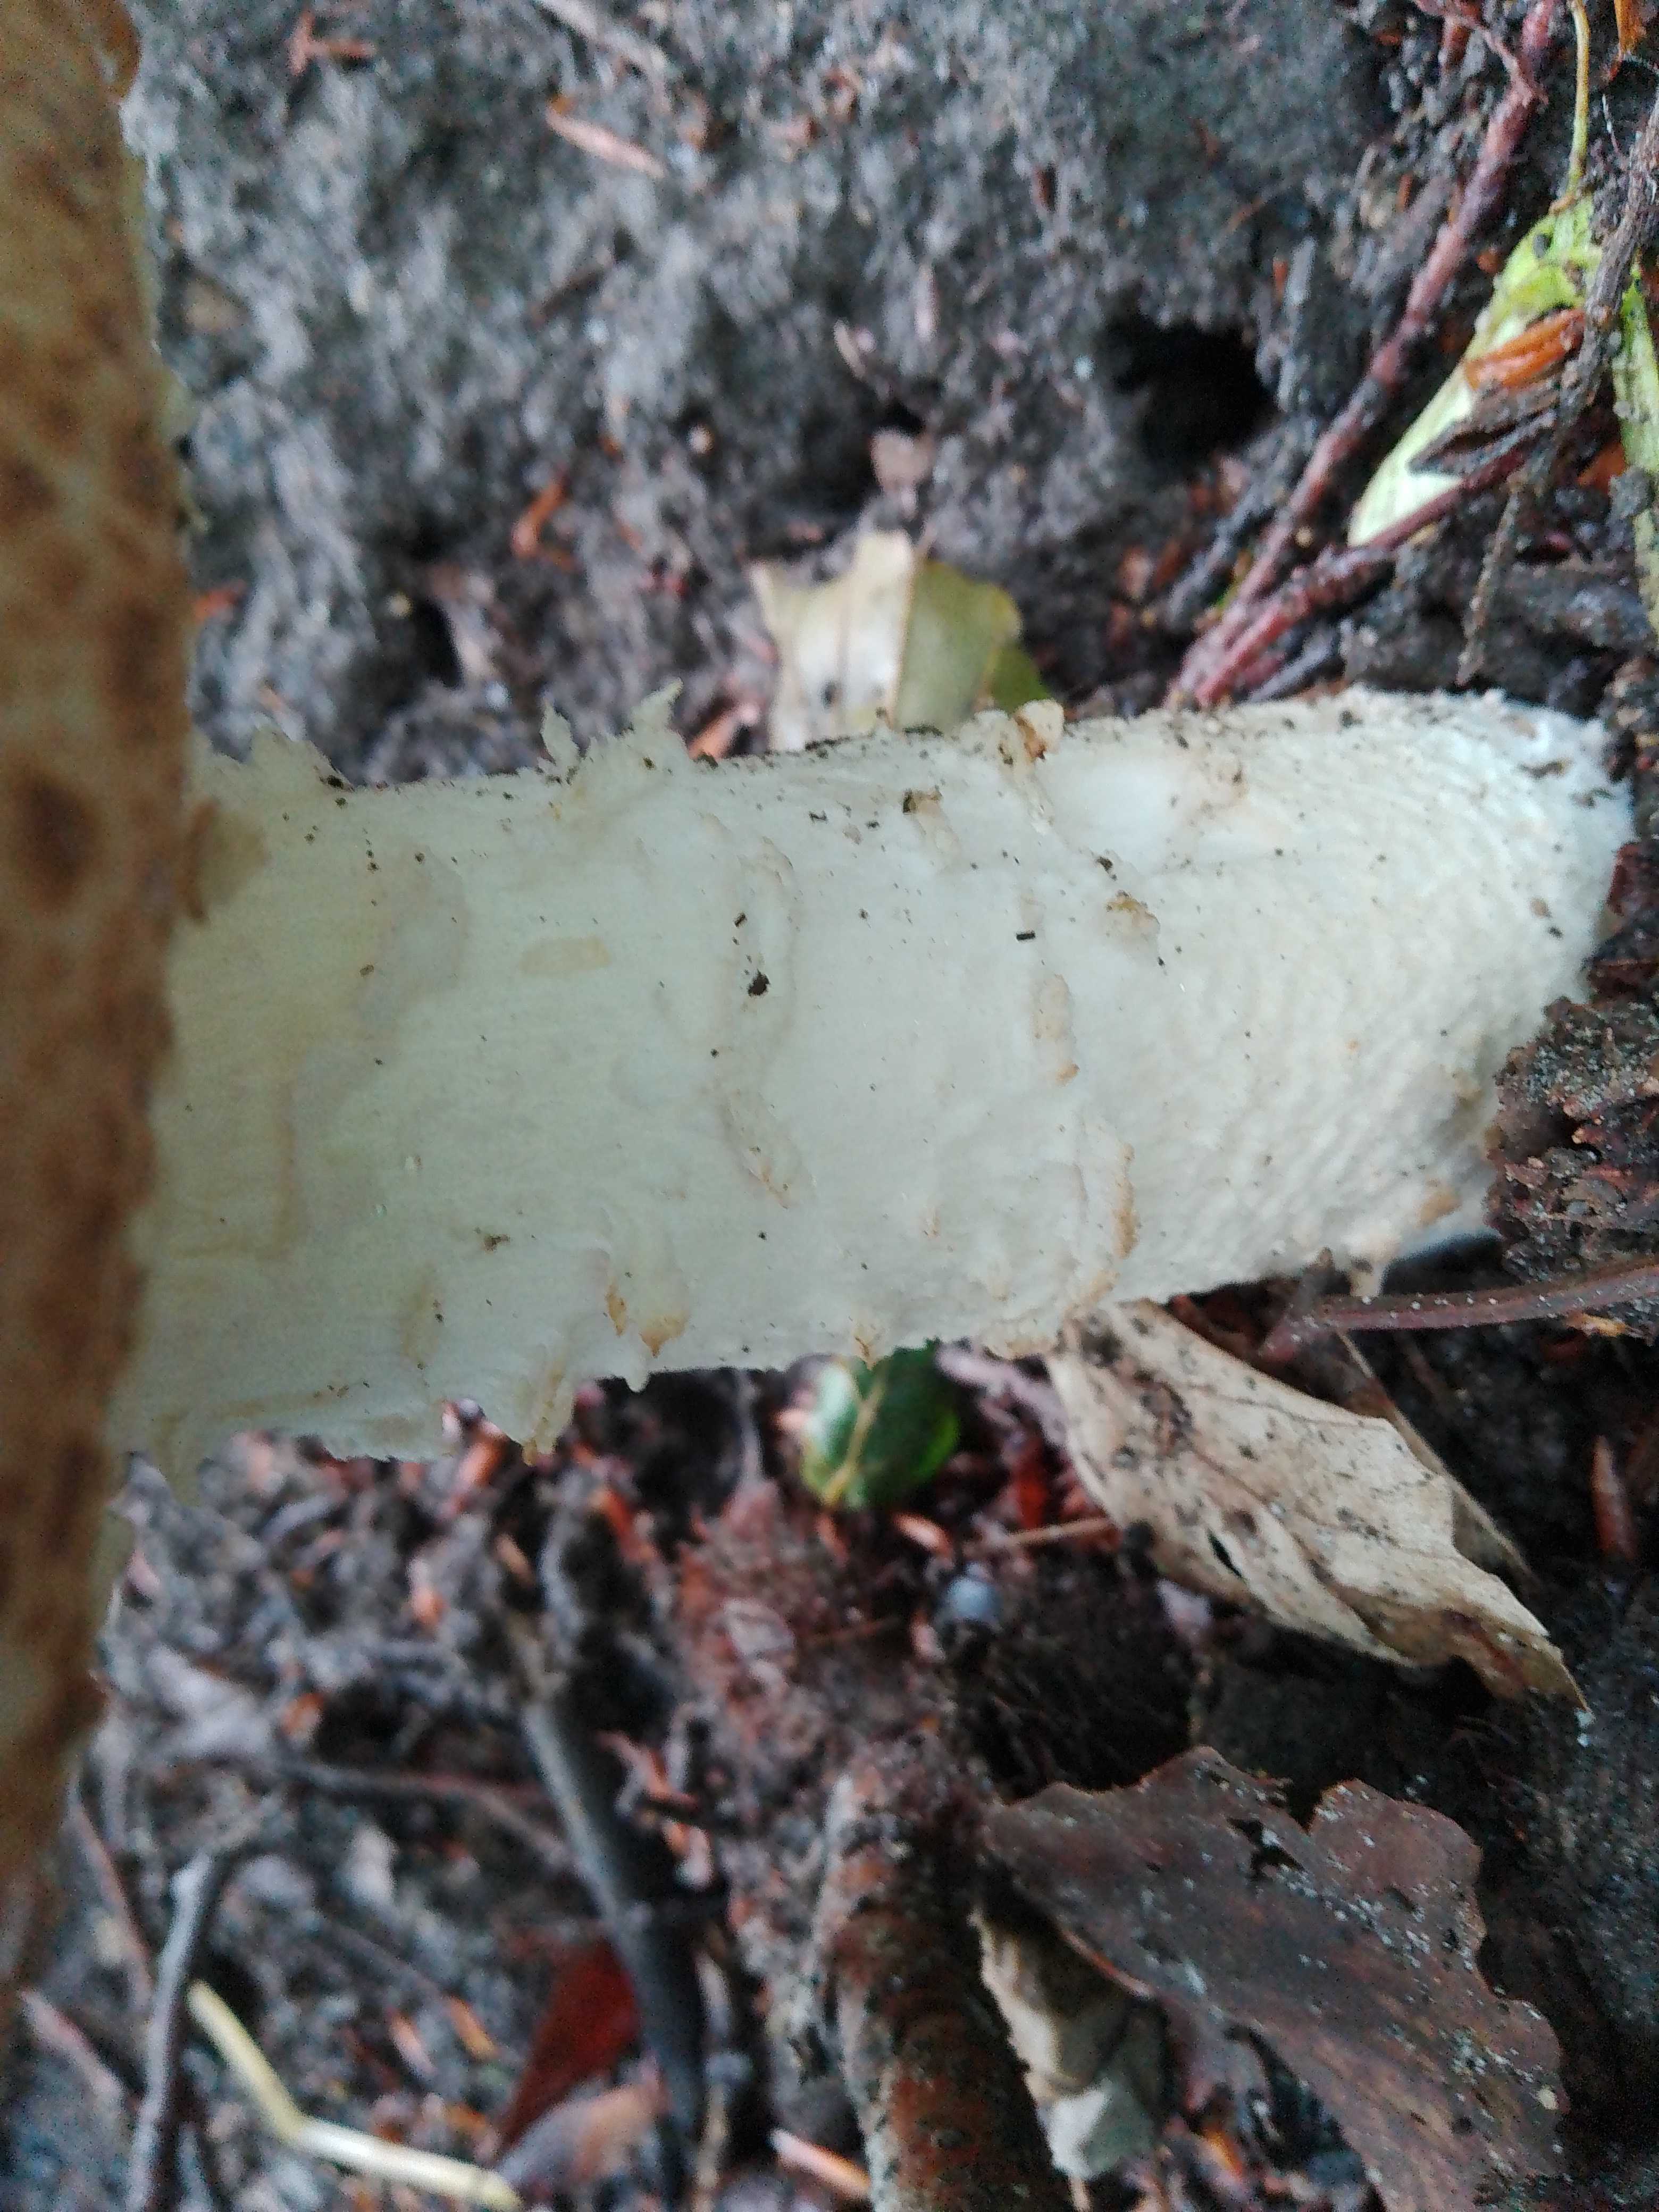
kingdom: Fungi
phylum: Basidiomycota
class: Agaricomycetes
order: Agaricales
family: Agaricaceae
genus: Agaricus
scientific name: Agaricus augustus
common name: prægtig champignon
